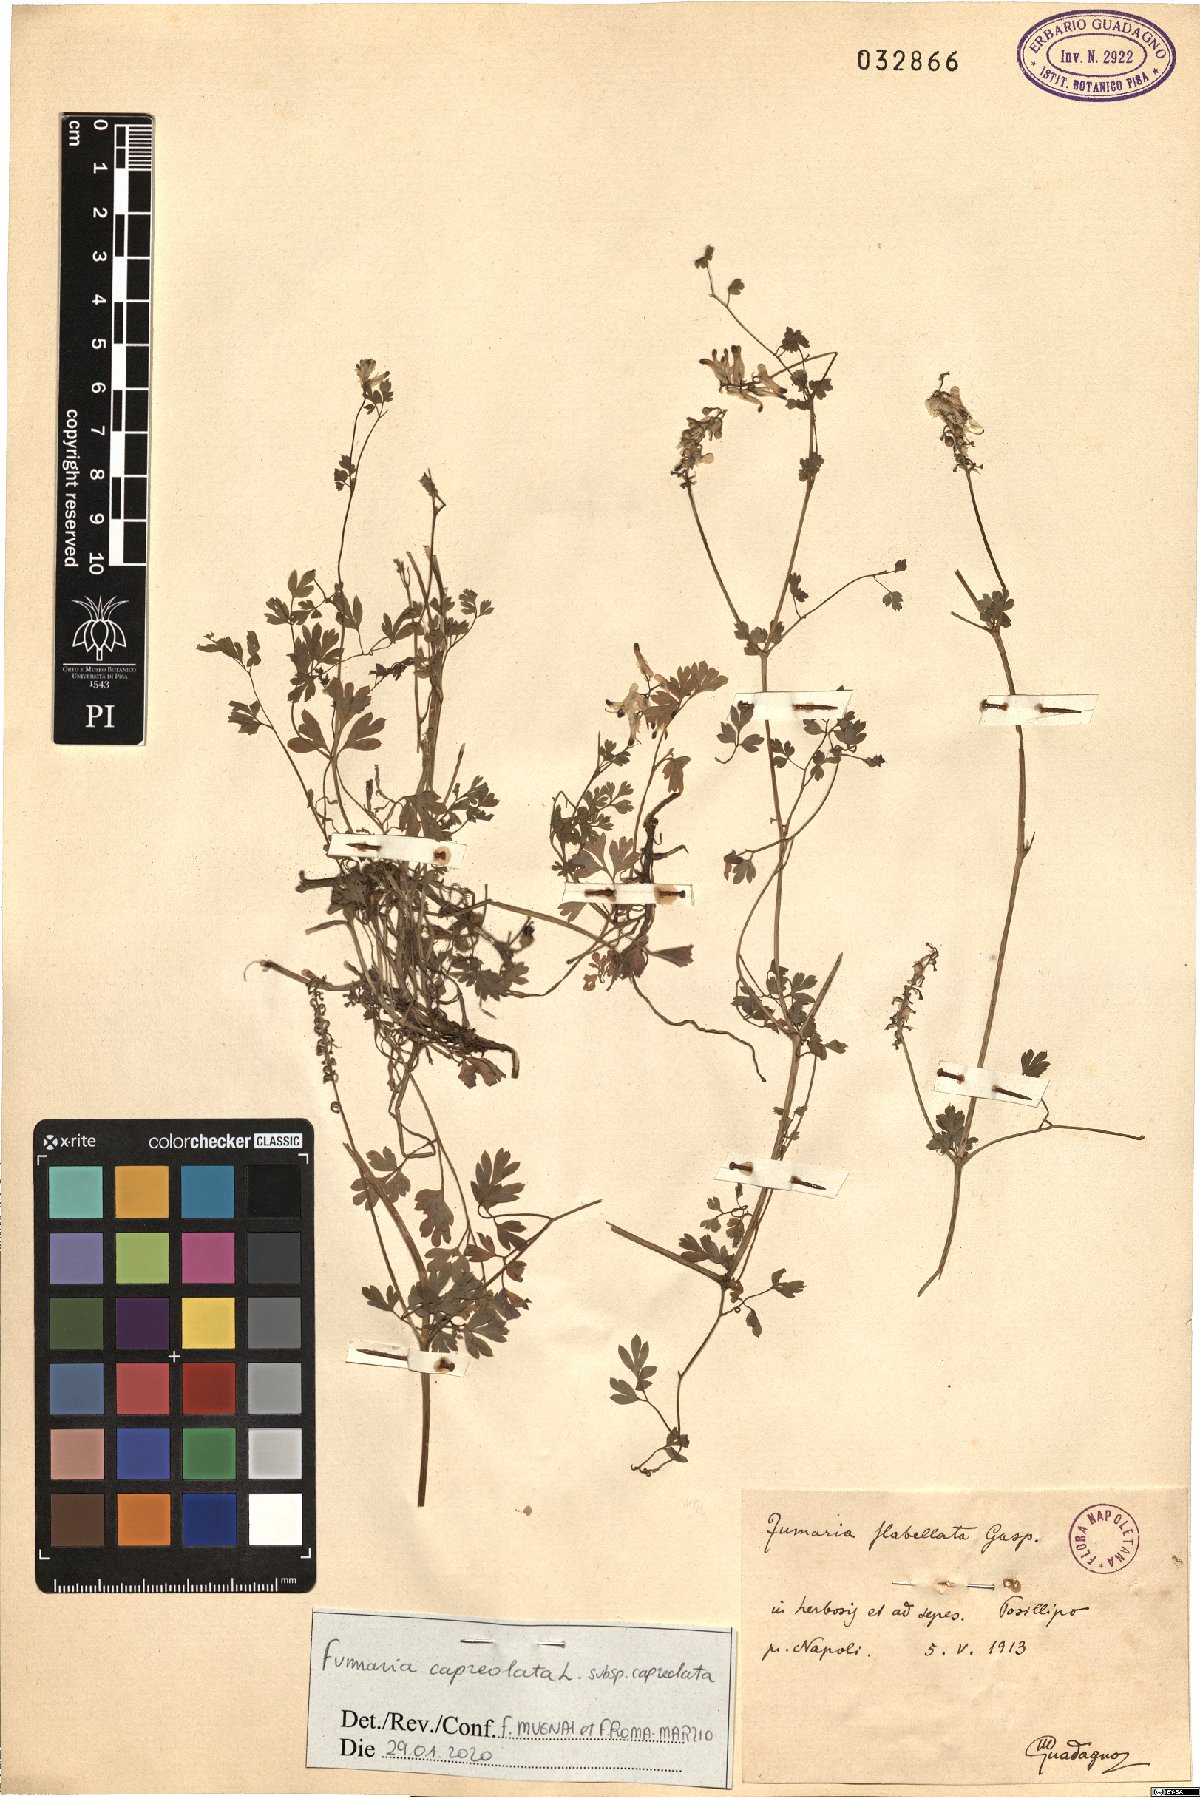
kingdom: Plantae
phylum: Tracheophyta
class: Magnoliopsida
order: Ranunculales
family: Papaveraceae
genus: Fumaria
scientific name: Fumaria capreolata
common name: White ramping-fumitory
